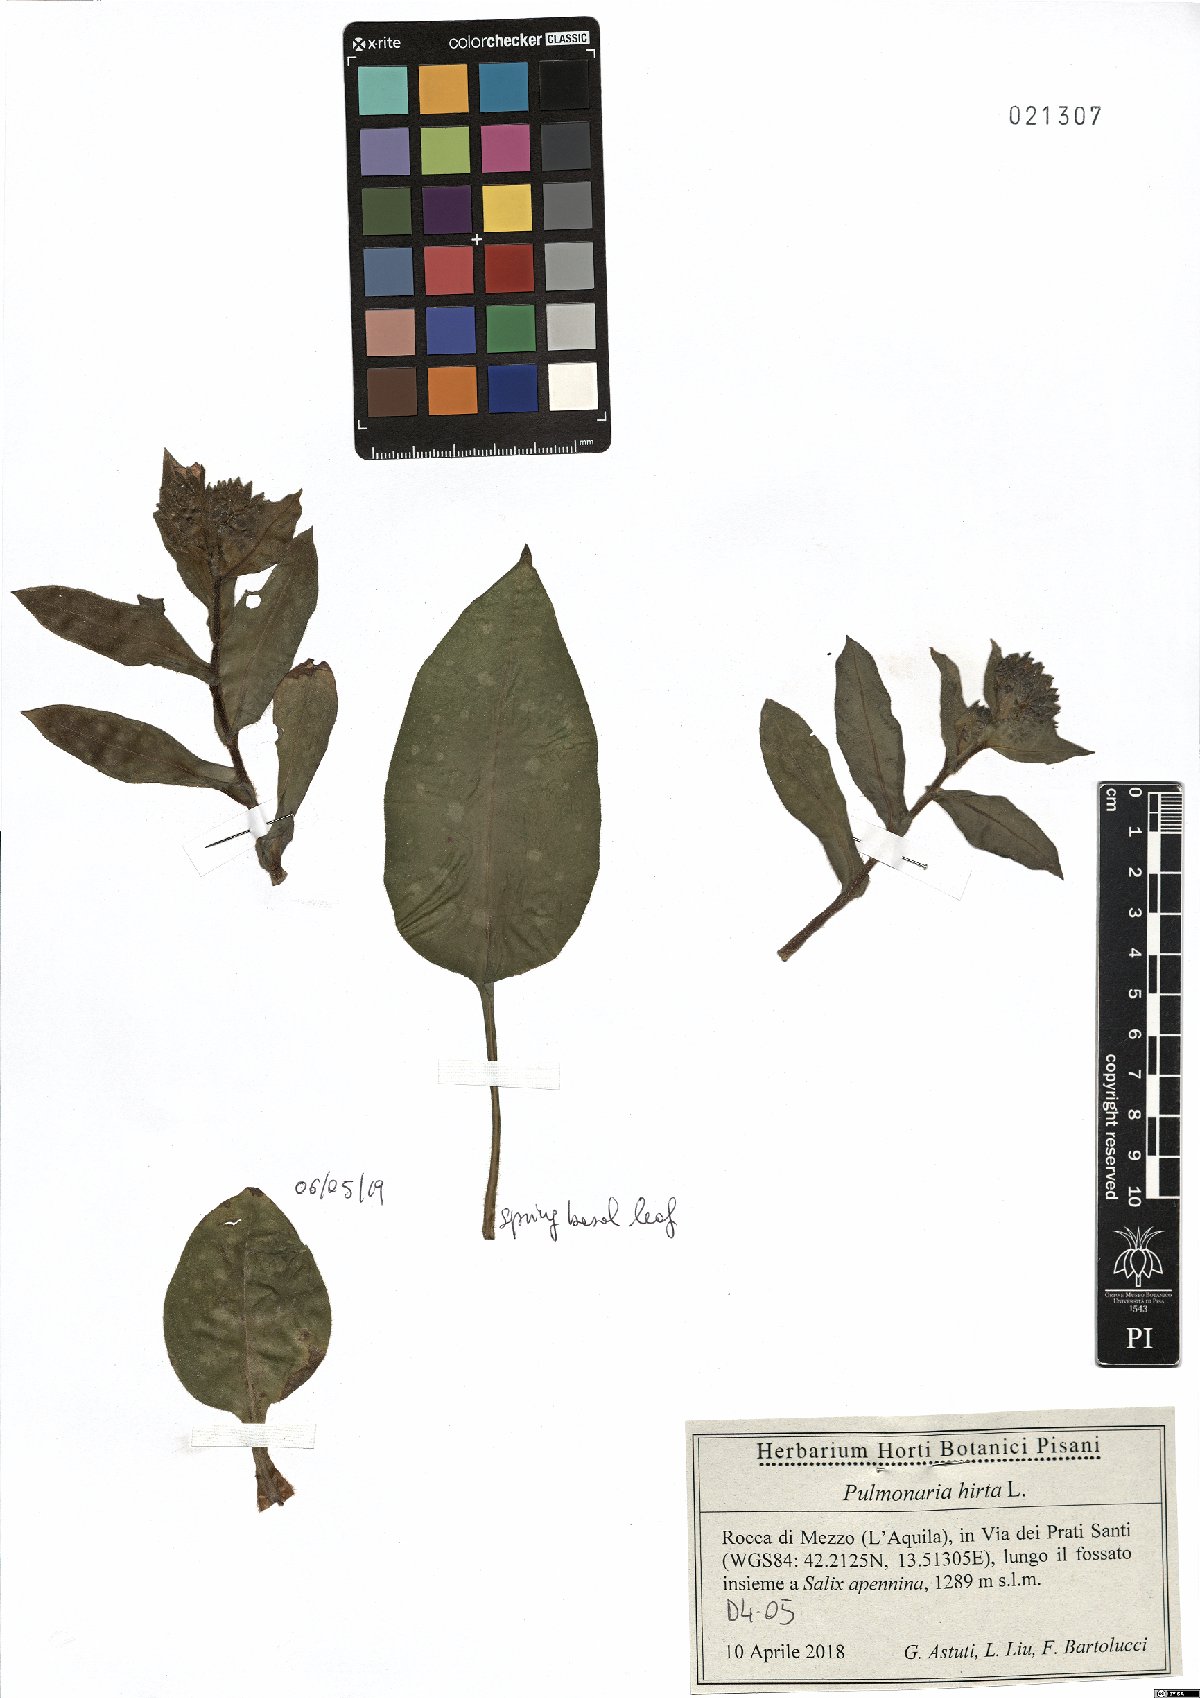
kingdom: Plantae
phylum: Tracheophyta
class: Magnoliopsida
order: Boraginales
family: Boraginaceae
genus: Pulmonaria
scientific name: Pulmonaria hirta
